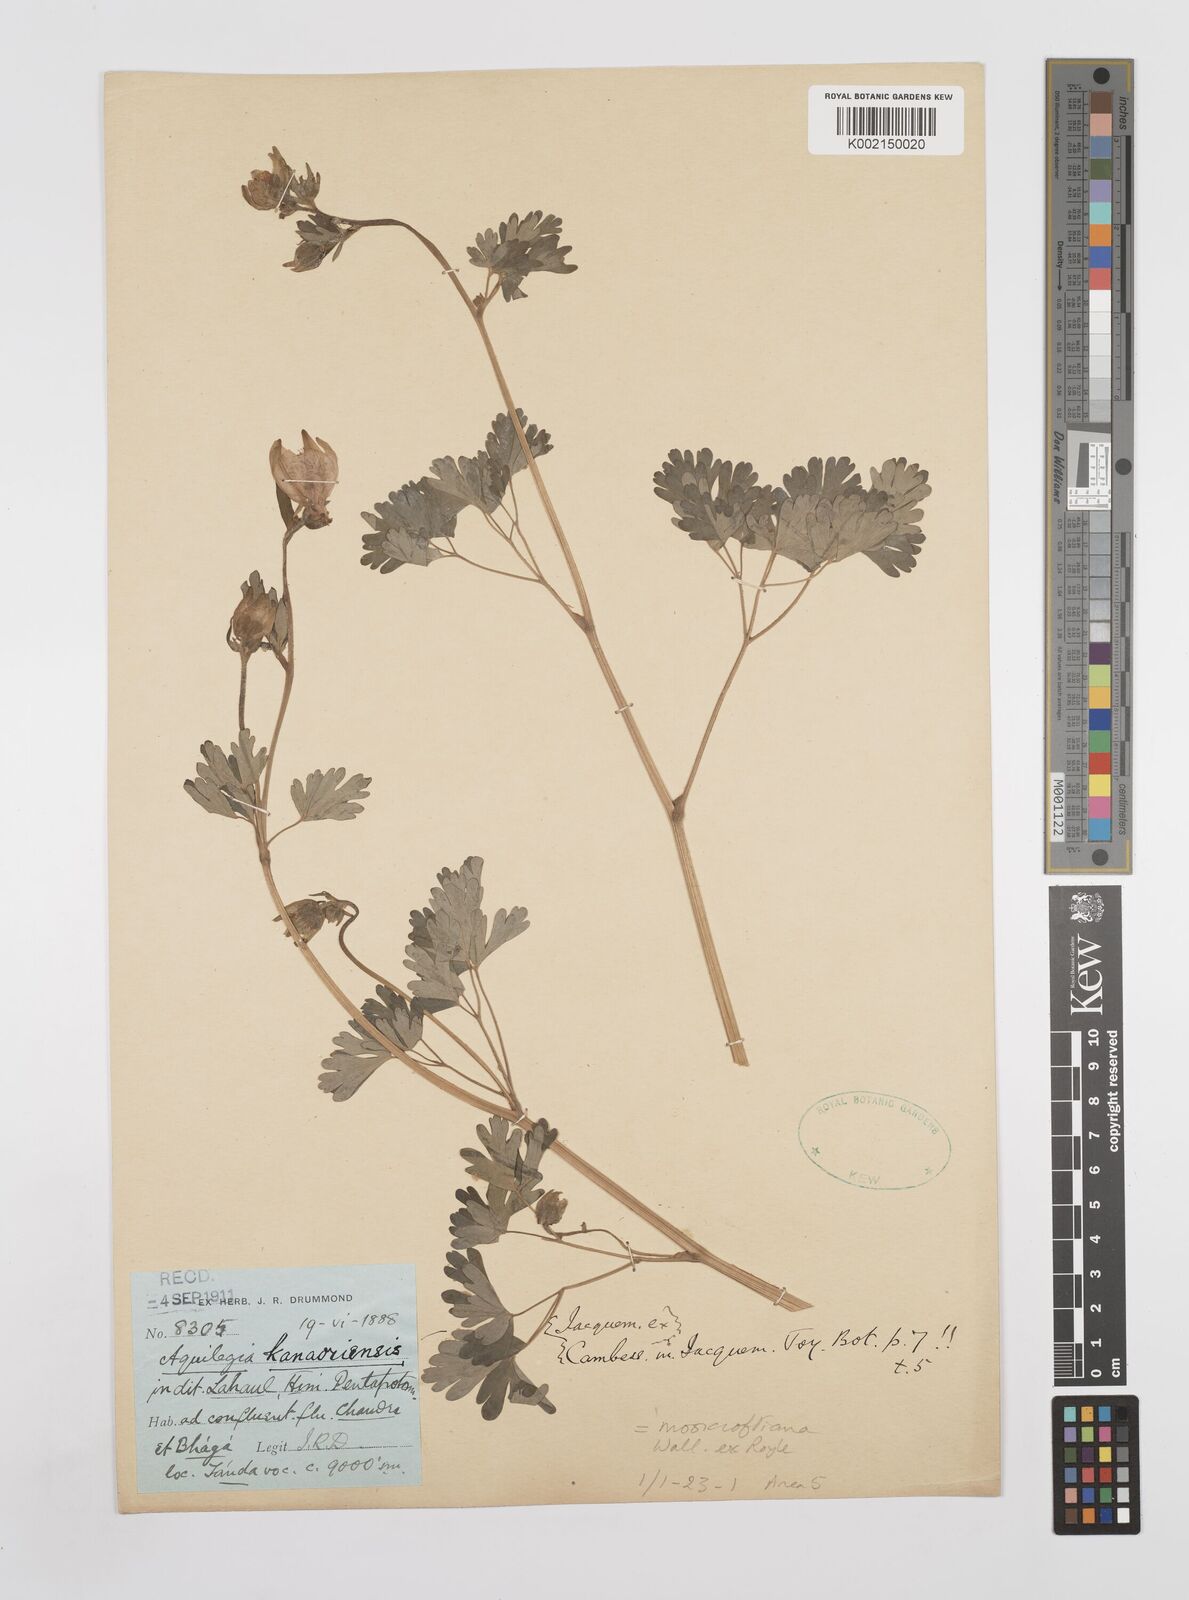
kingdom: Plantae
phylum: Tracheophyta
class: Magnoliopsida
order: Ranunculales
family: Ranunculaceae
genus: Aquilegia
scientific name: Aquilegia fragrans
